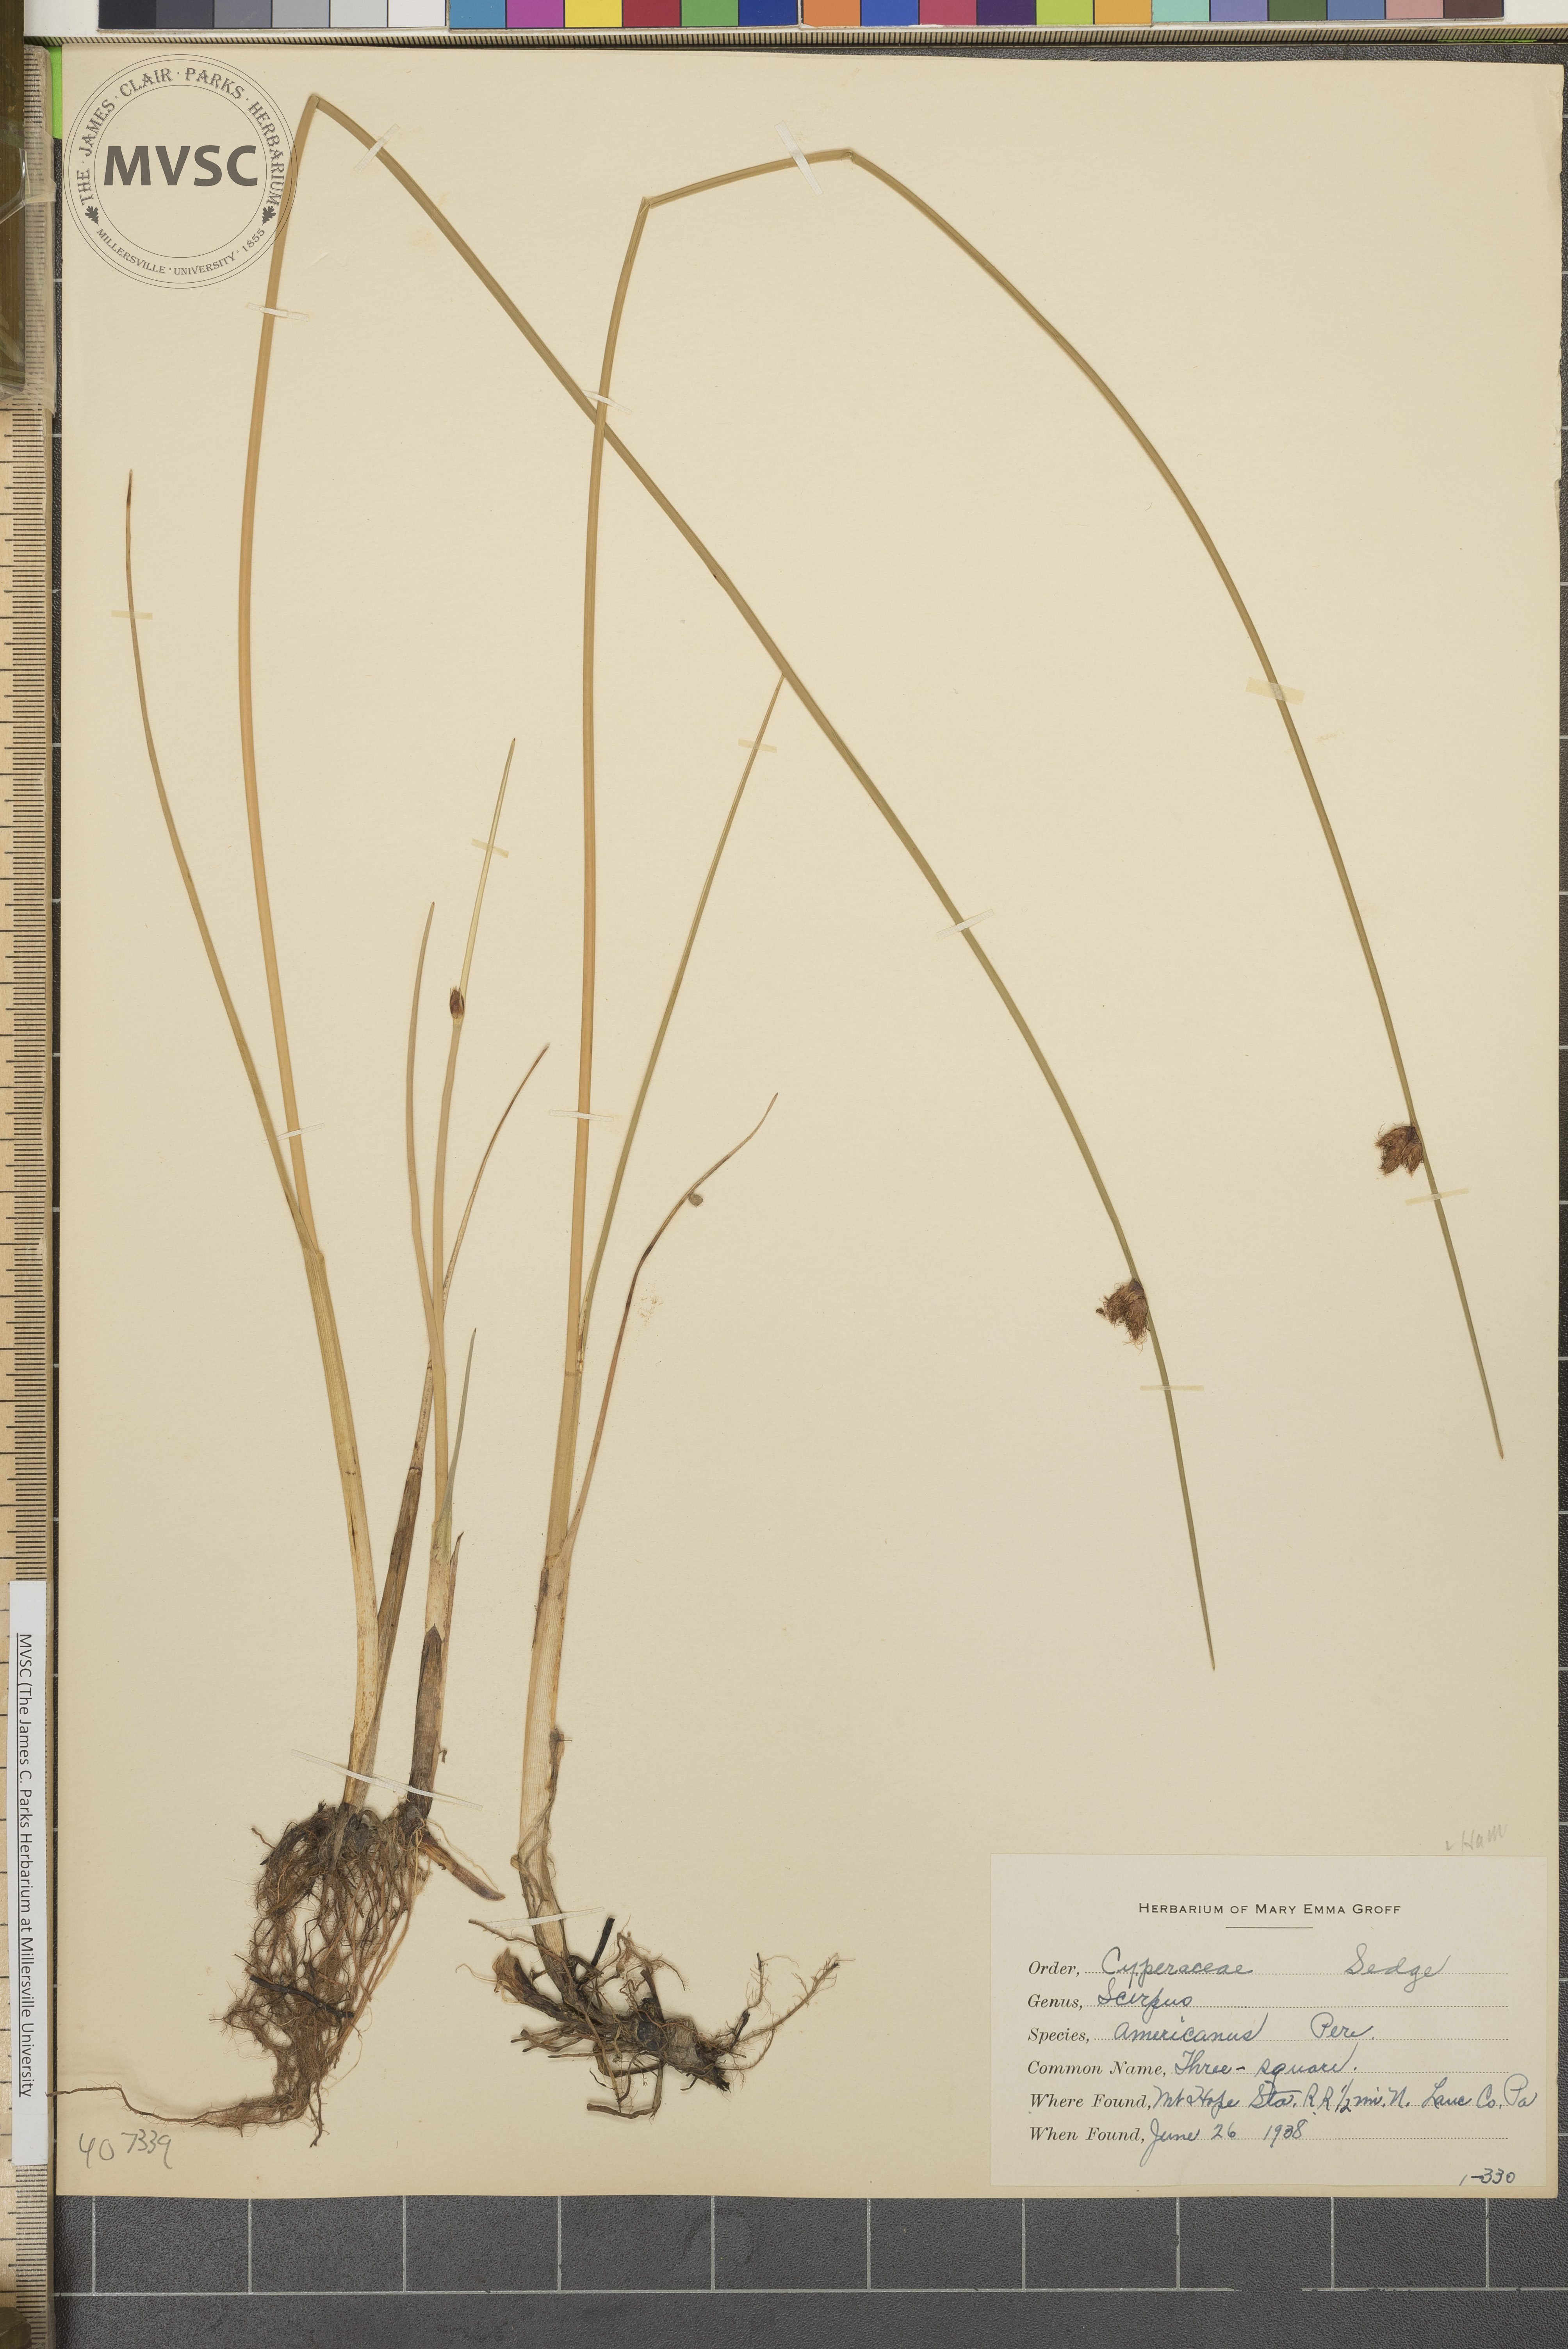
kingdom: Plantae
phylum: Tracheophyta
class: Liliopsida
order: Poales
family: Cyperaceae
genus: Schoenoplectus
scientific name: Schoenoplectus pungens
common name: Three-square
